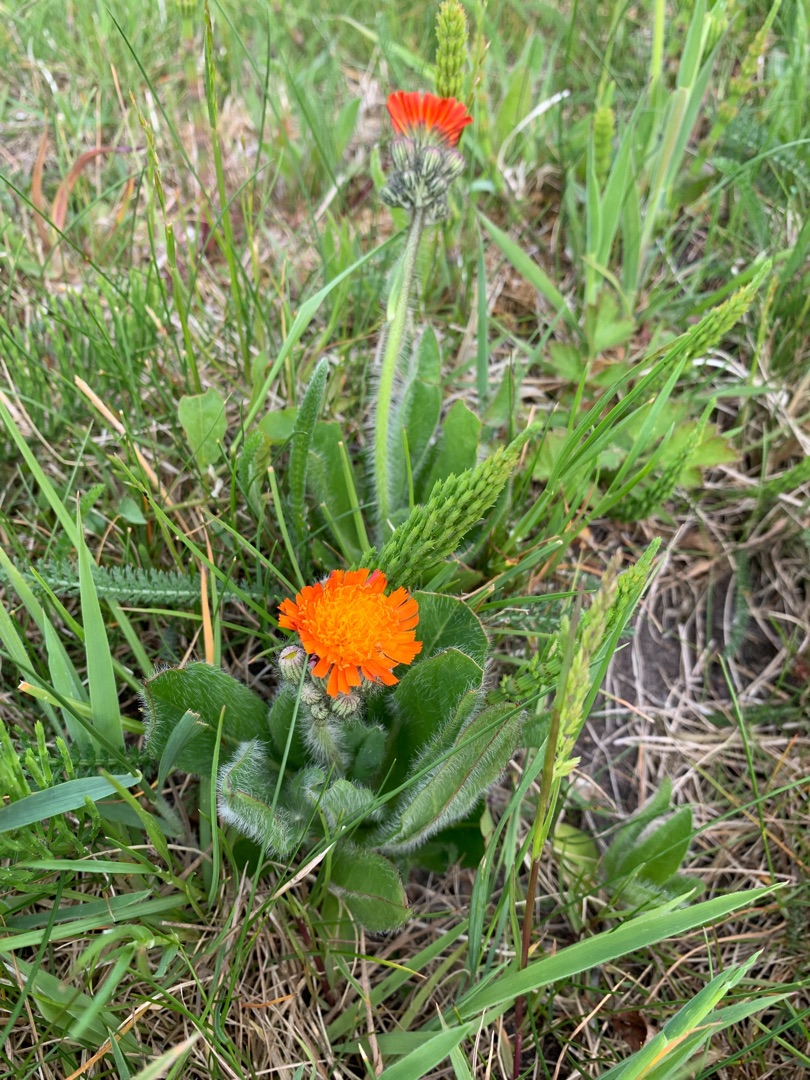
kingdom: Plantae
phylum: Tracheophyta
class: Magnoliopsida
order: Asterales
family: Asteraceae
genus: Pilosella
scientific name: Pilosella aurantiaca
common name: Pomerans-høgeurt
